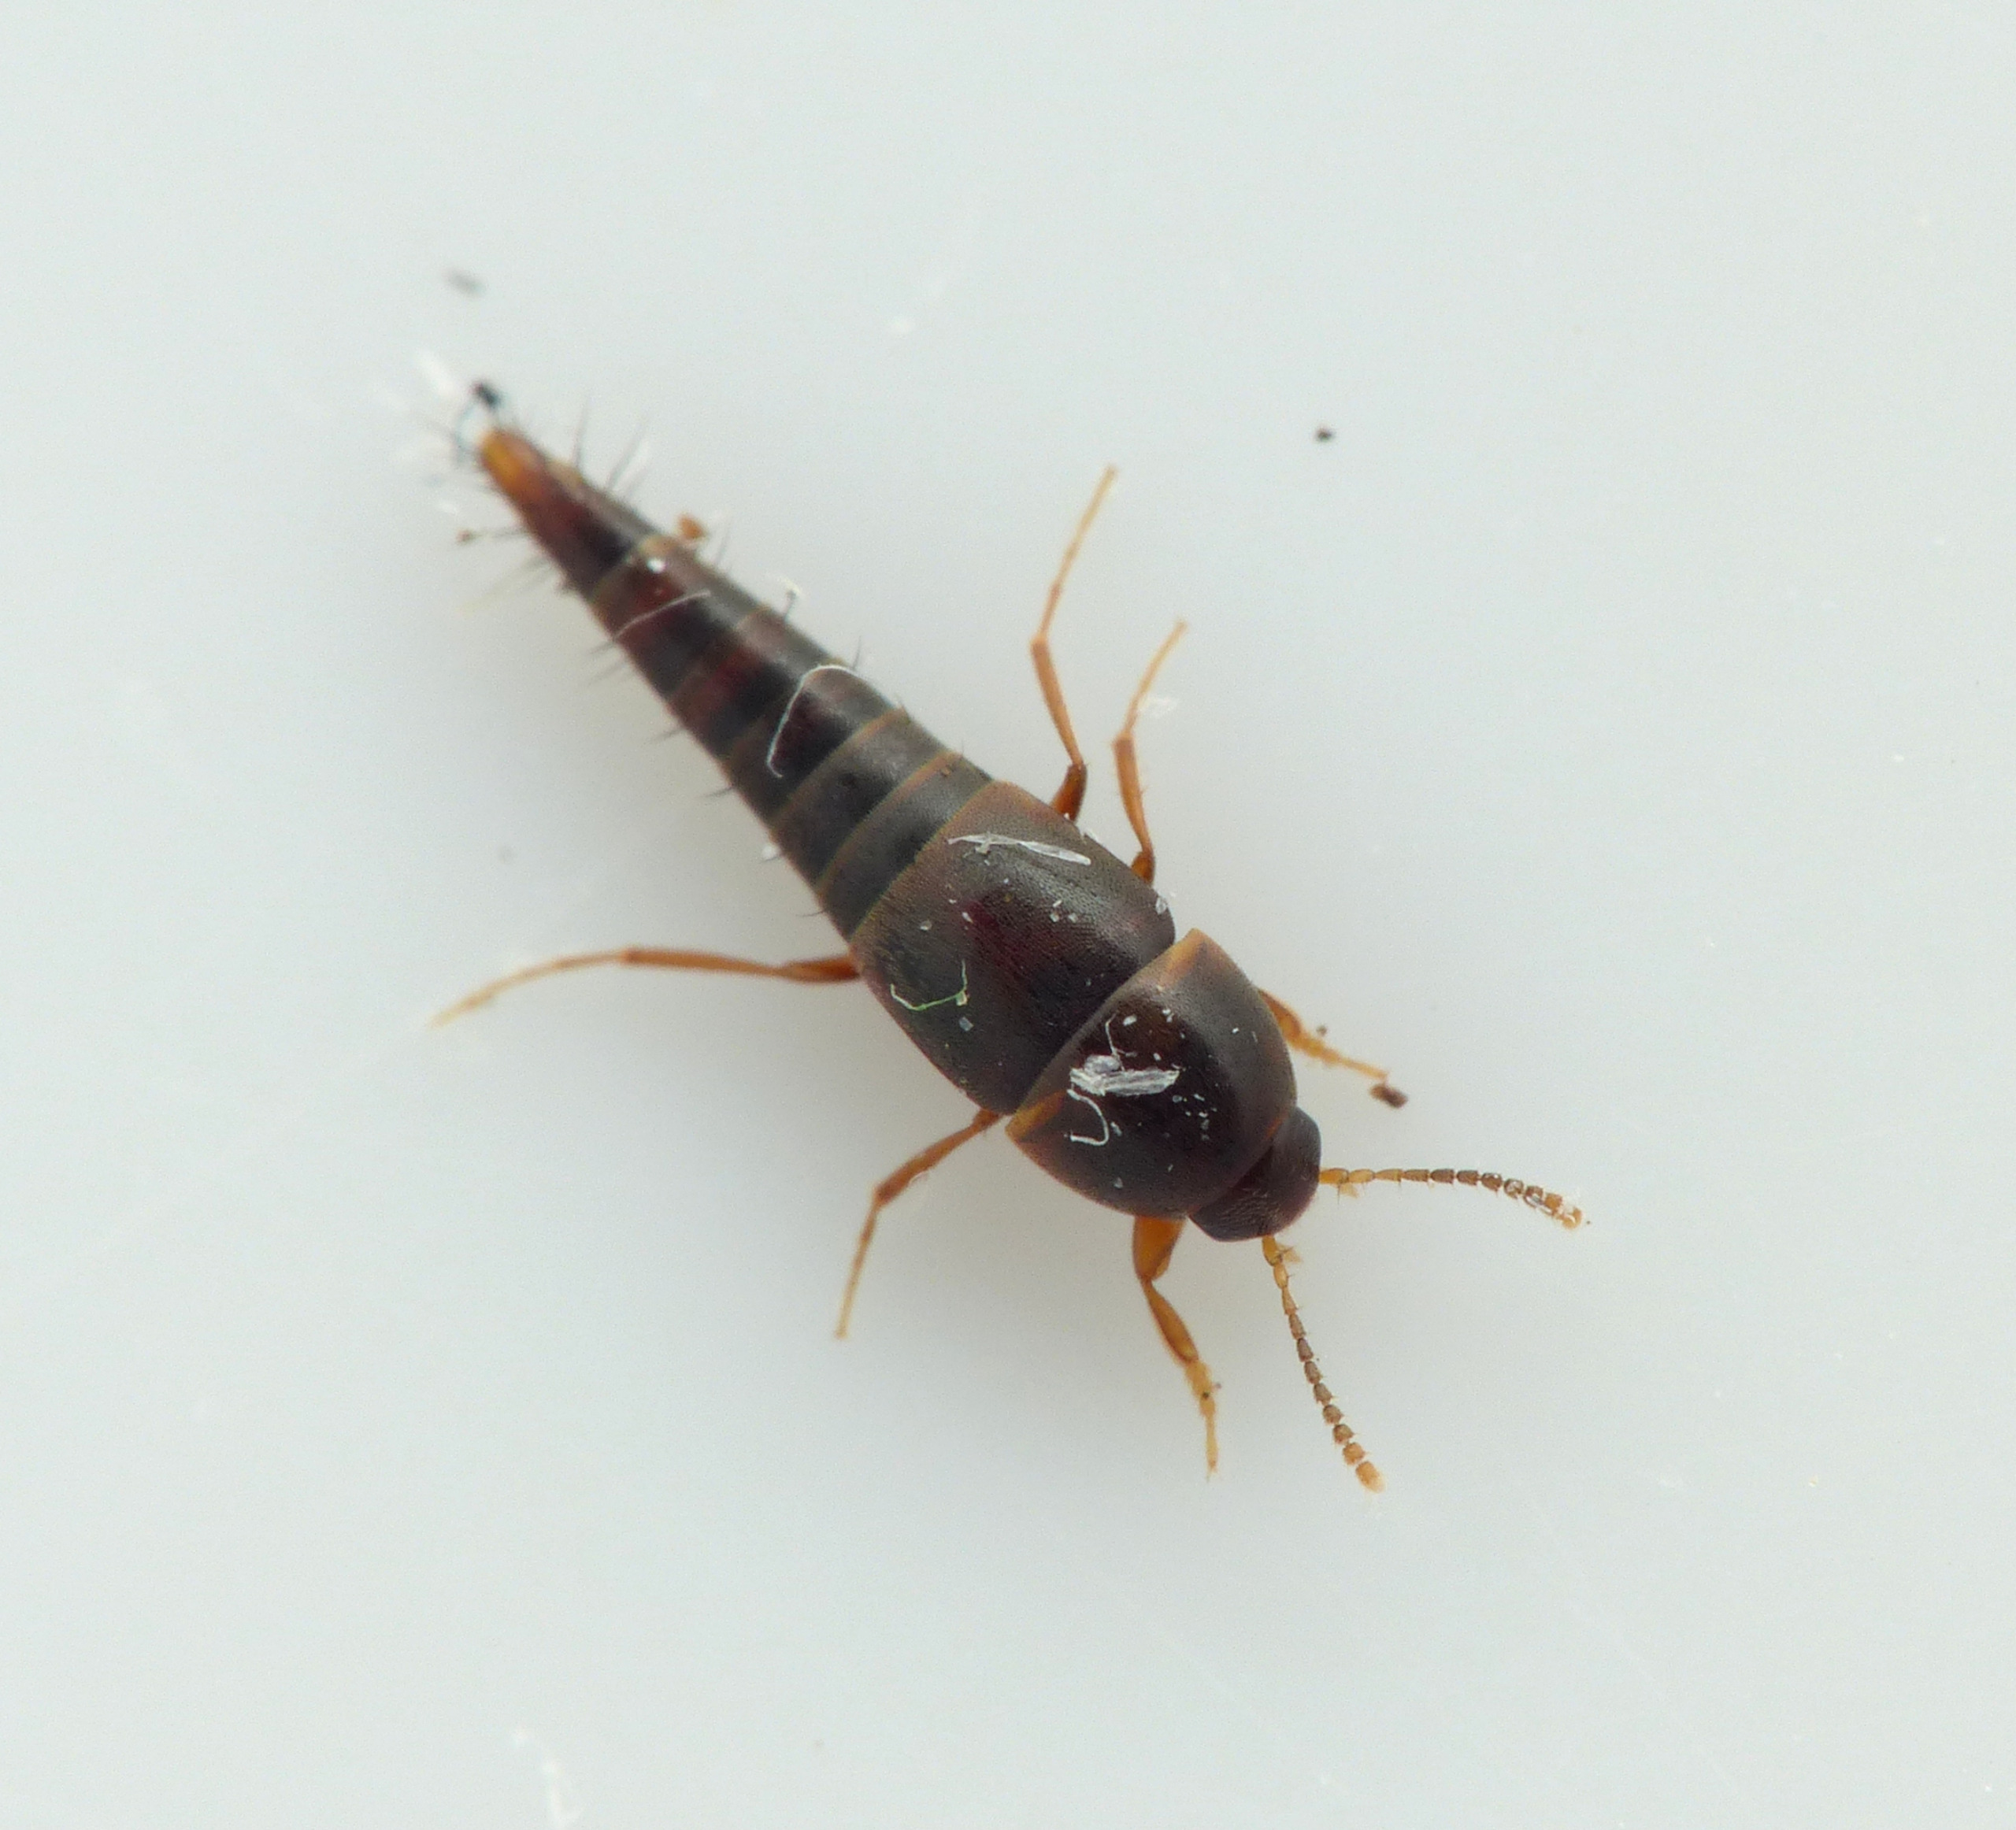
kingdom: Animalia
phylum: Arthropoda
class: Insecta
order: Coleoptera
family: Staphylinidae
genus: Sepedophilus
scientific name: Sepedophilus immaculatus
